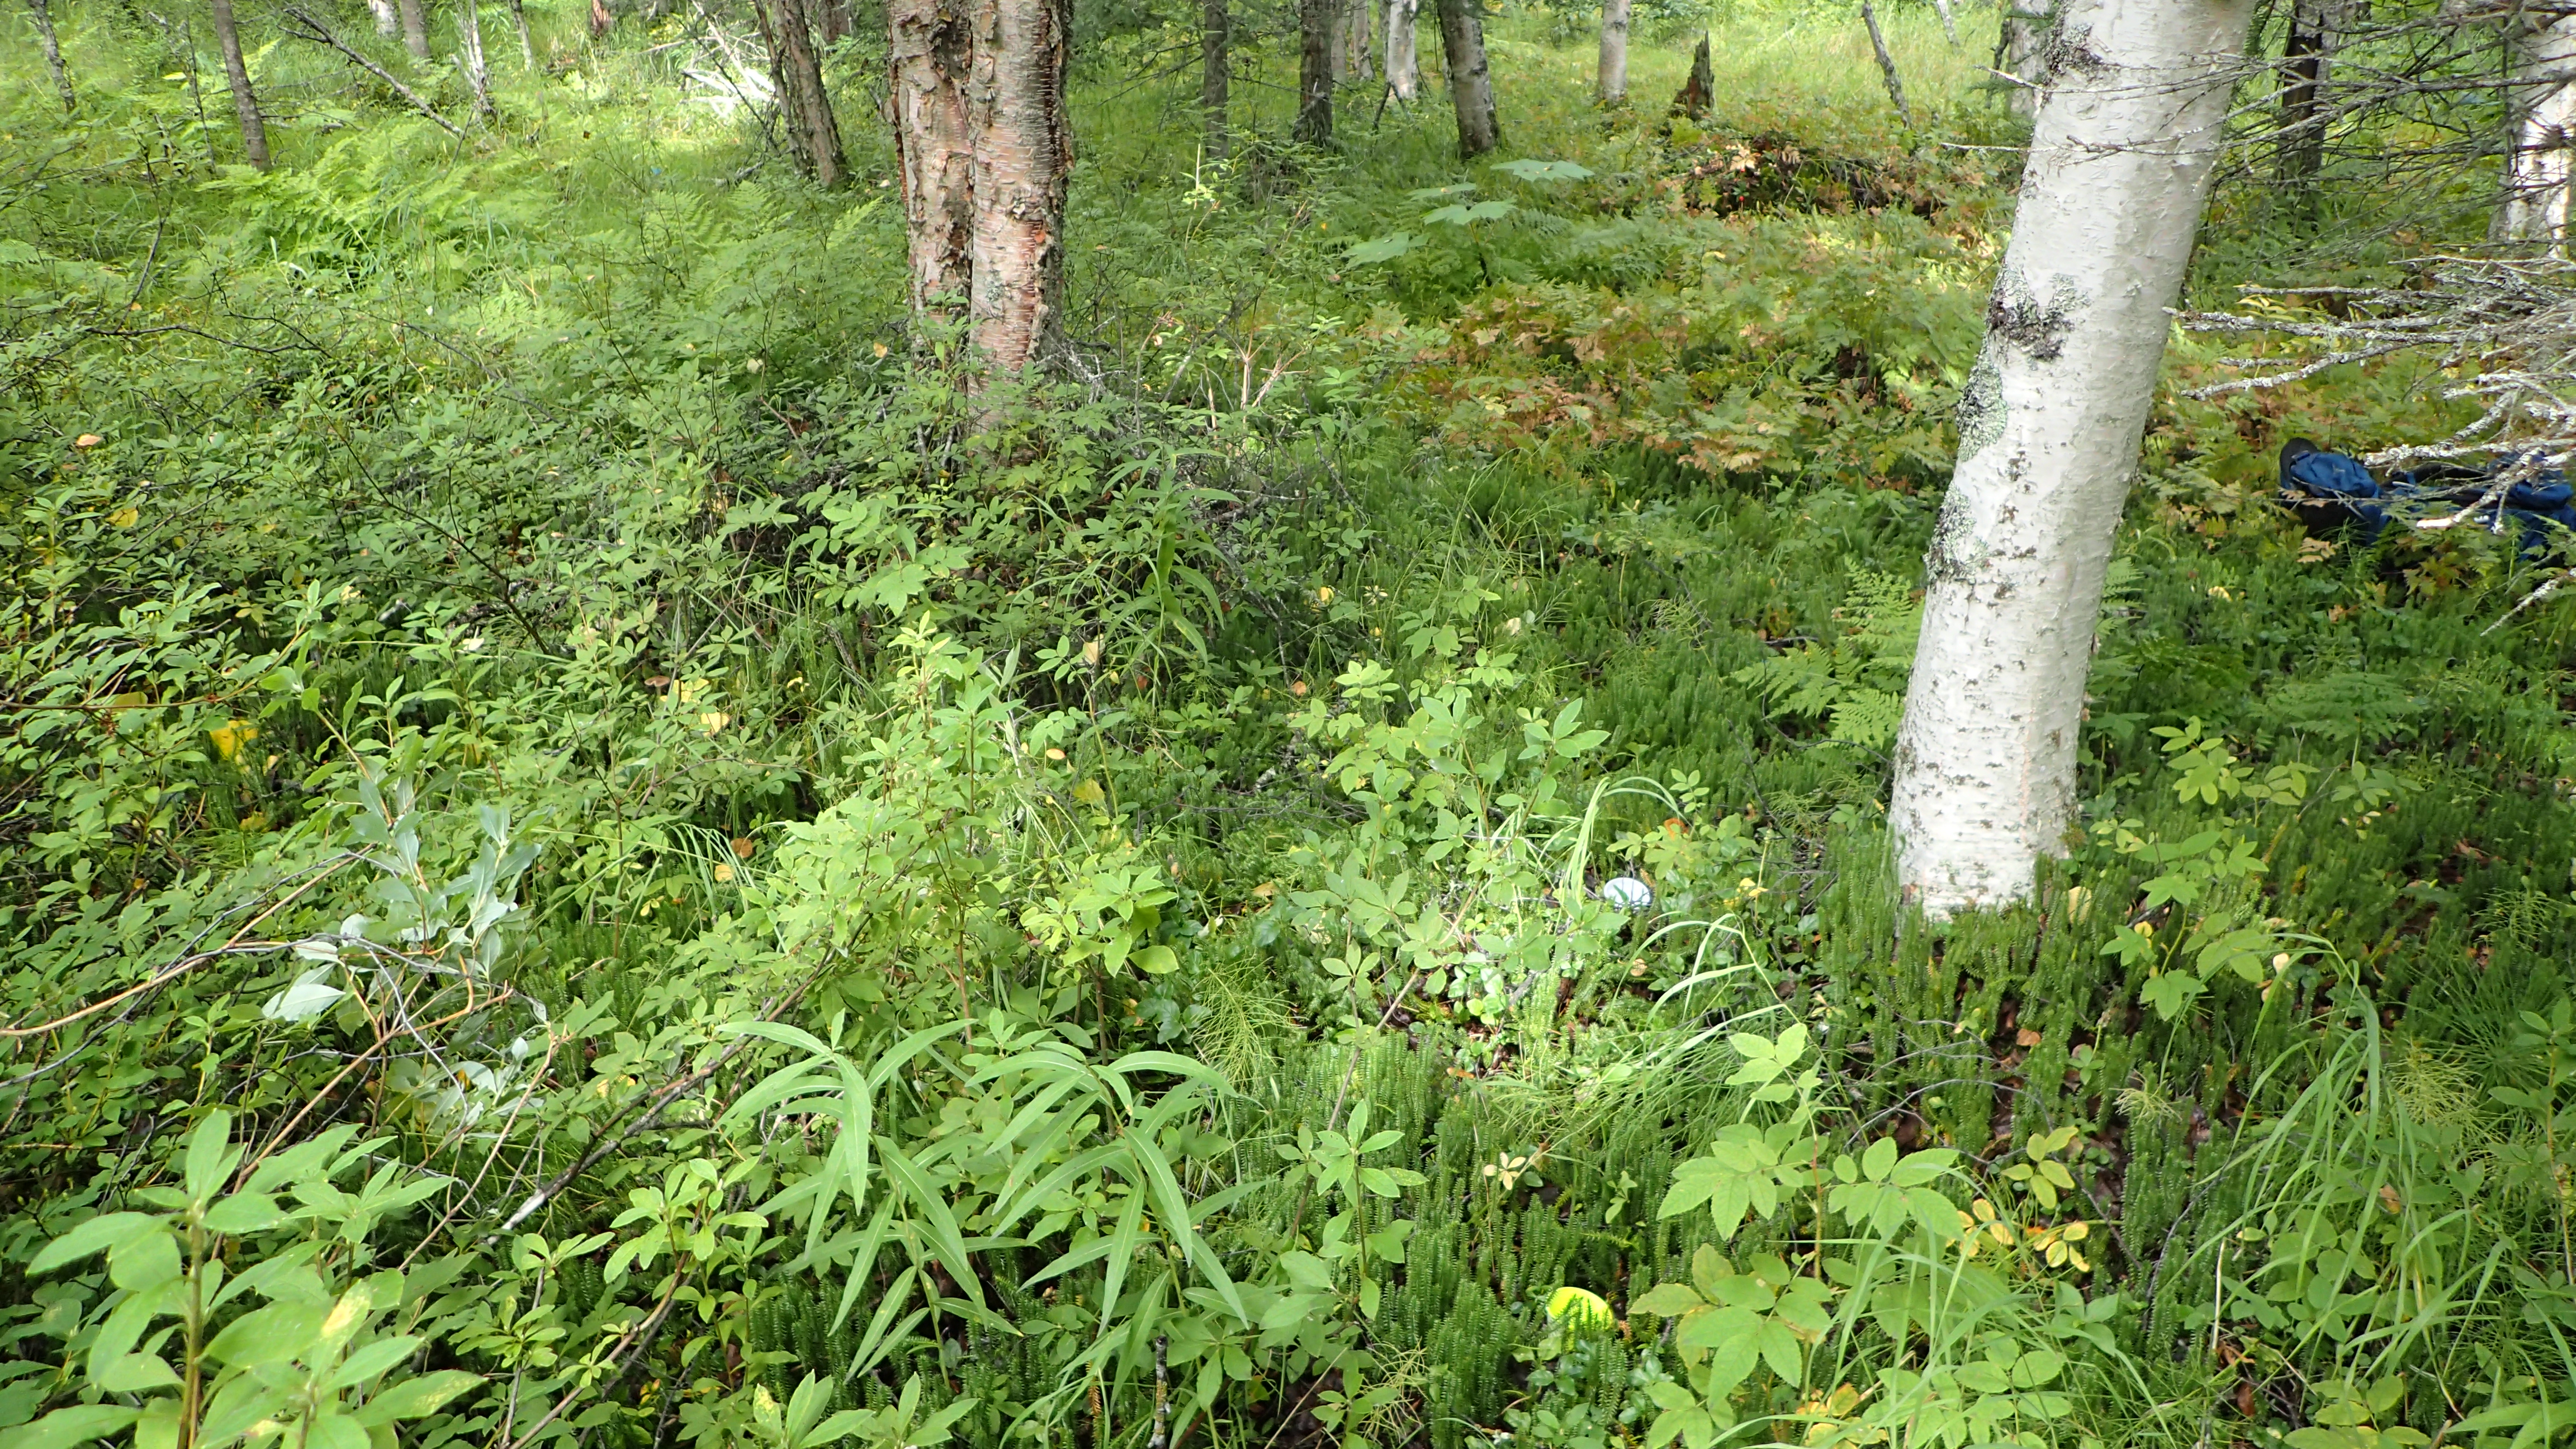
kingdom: Animalia
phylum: Arthropoda
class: Insecta
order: Diptera
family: Heleomyzidae
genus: Suillia
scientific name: Suillia
